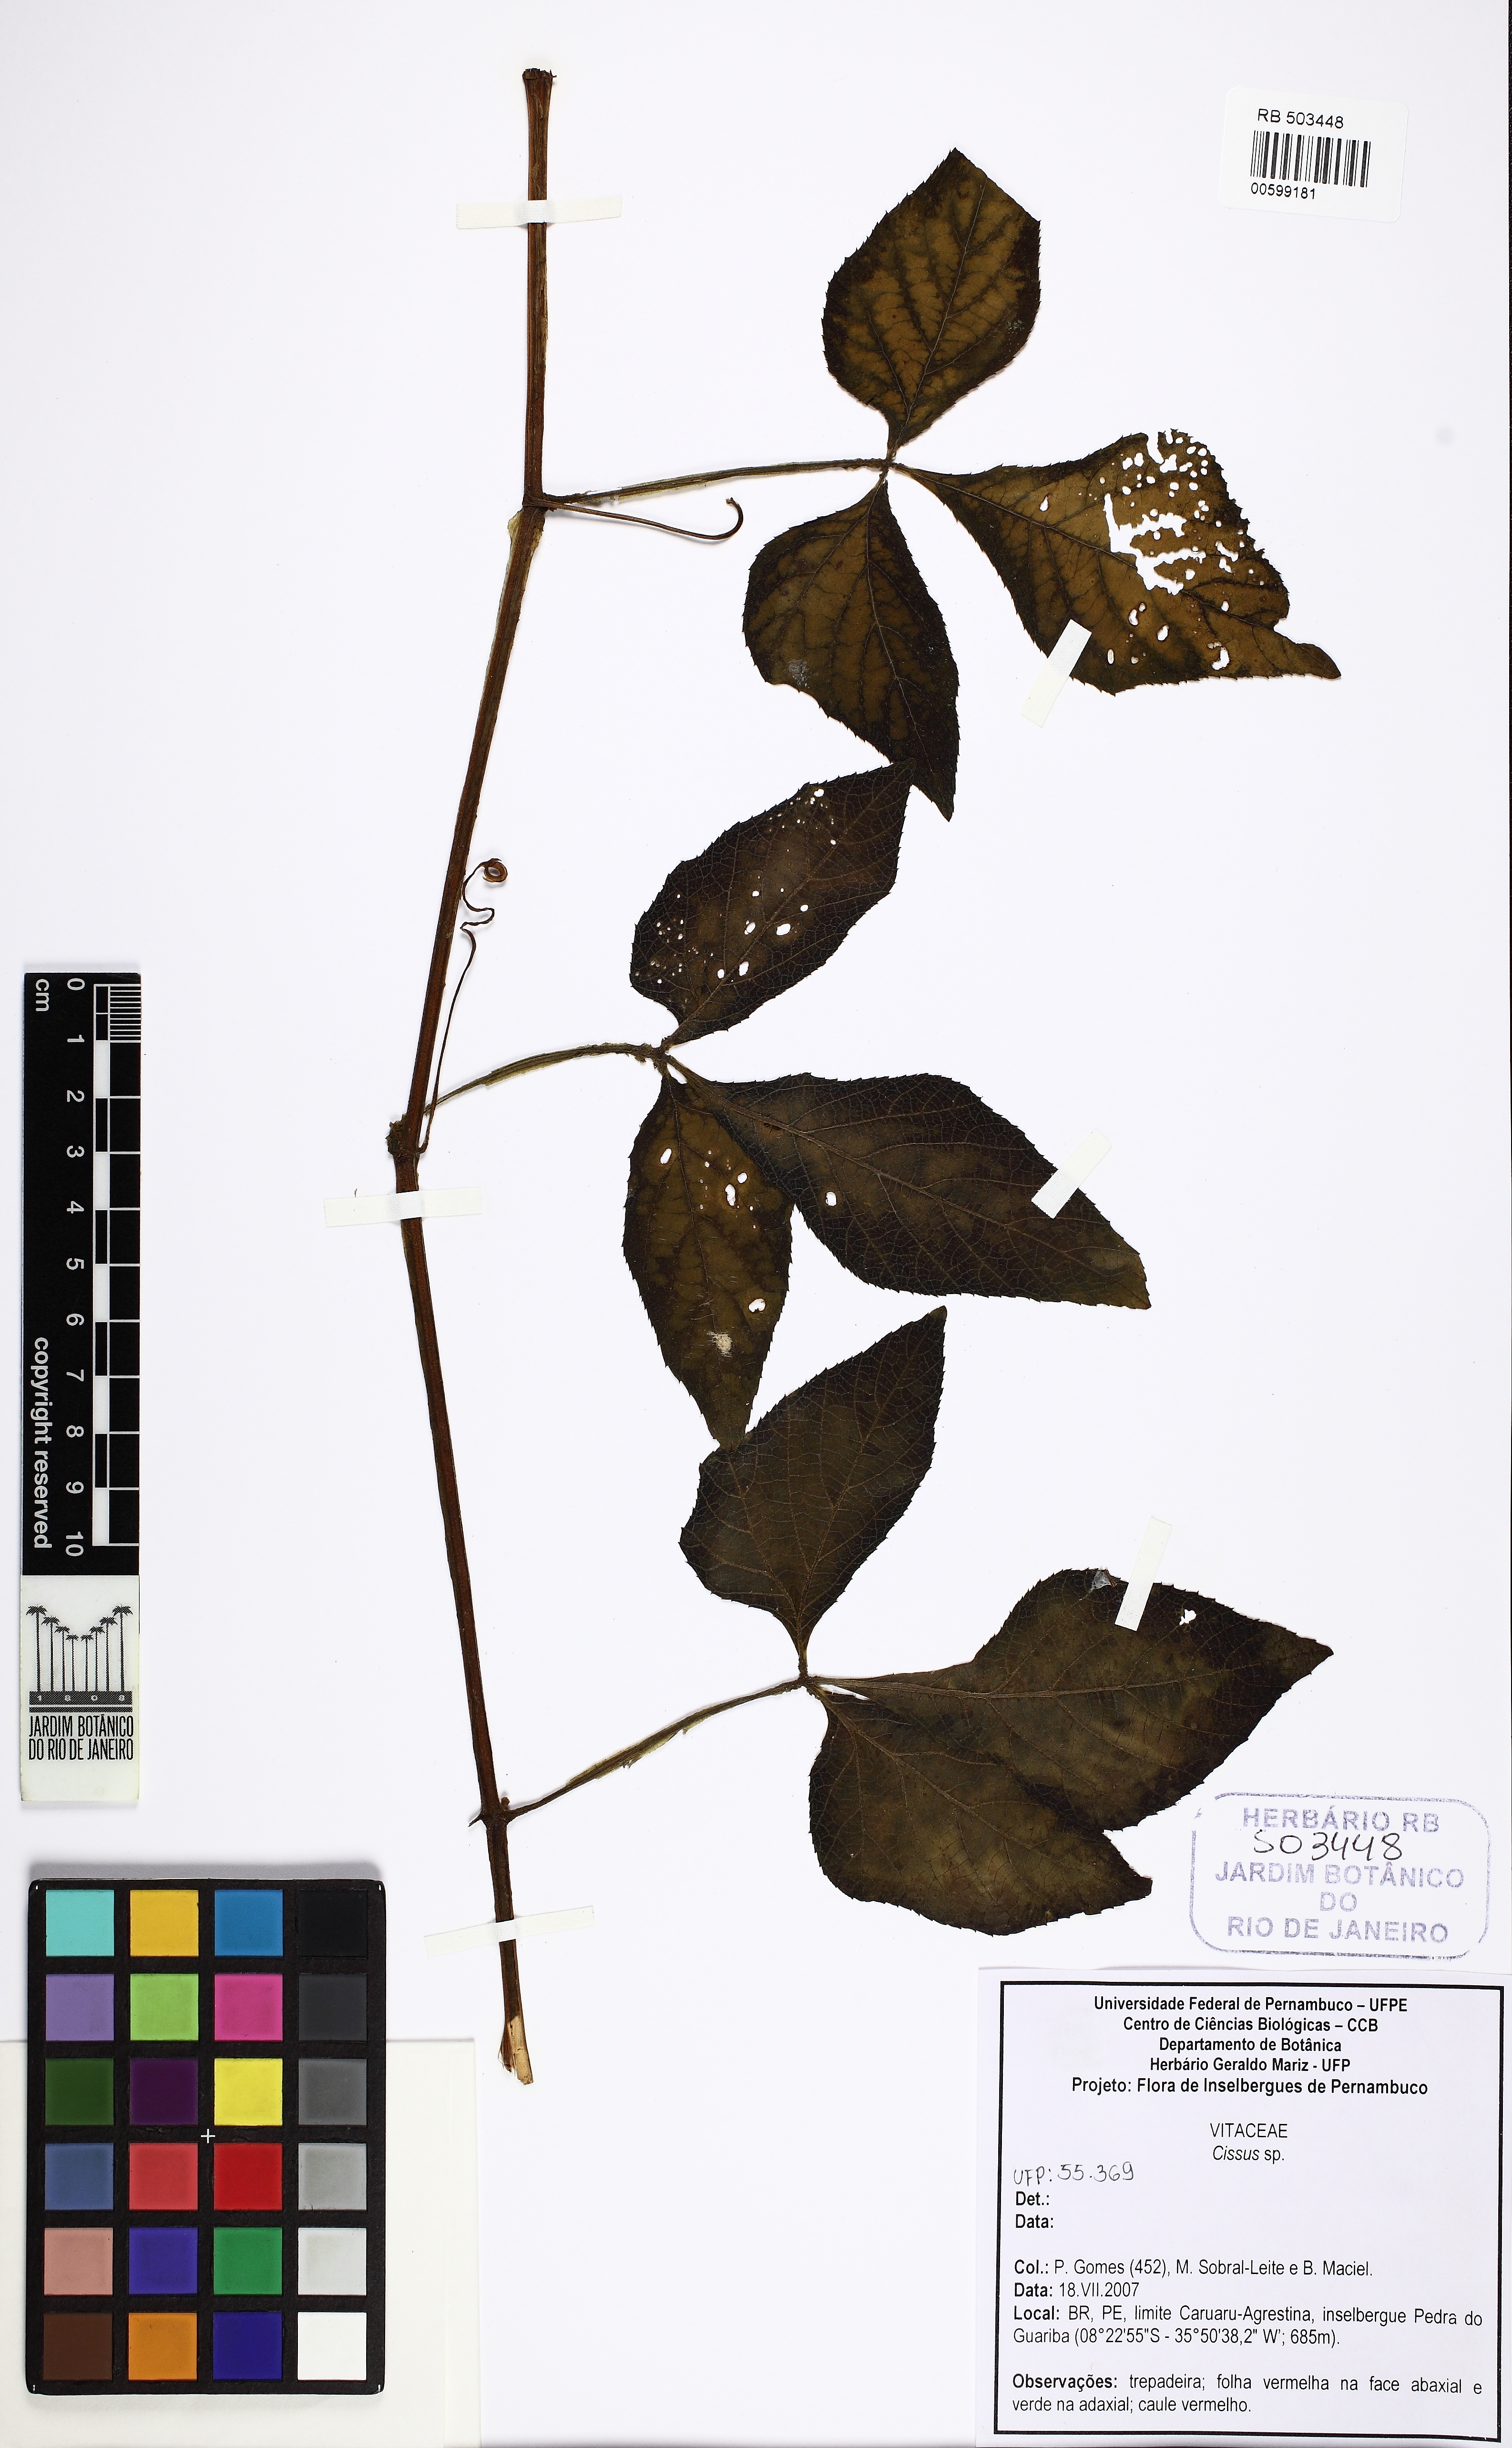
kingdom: Plantae
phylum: Tracheophyta
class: Magnoliopsida
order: Vitales
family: Vitaceae
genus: Cissus
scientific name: Cissus
